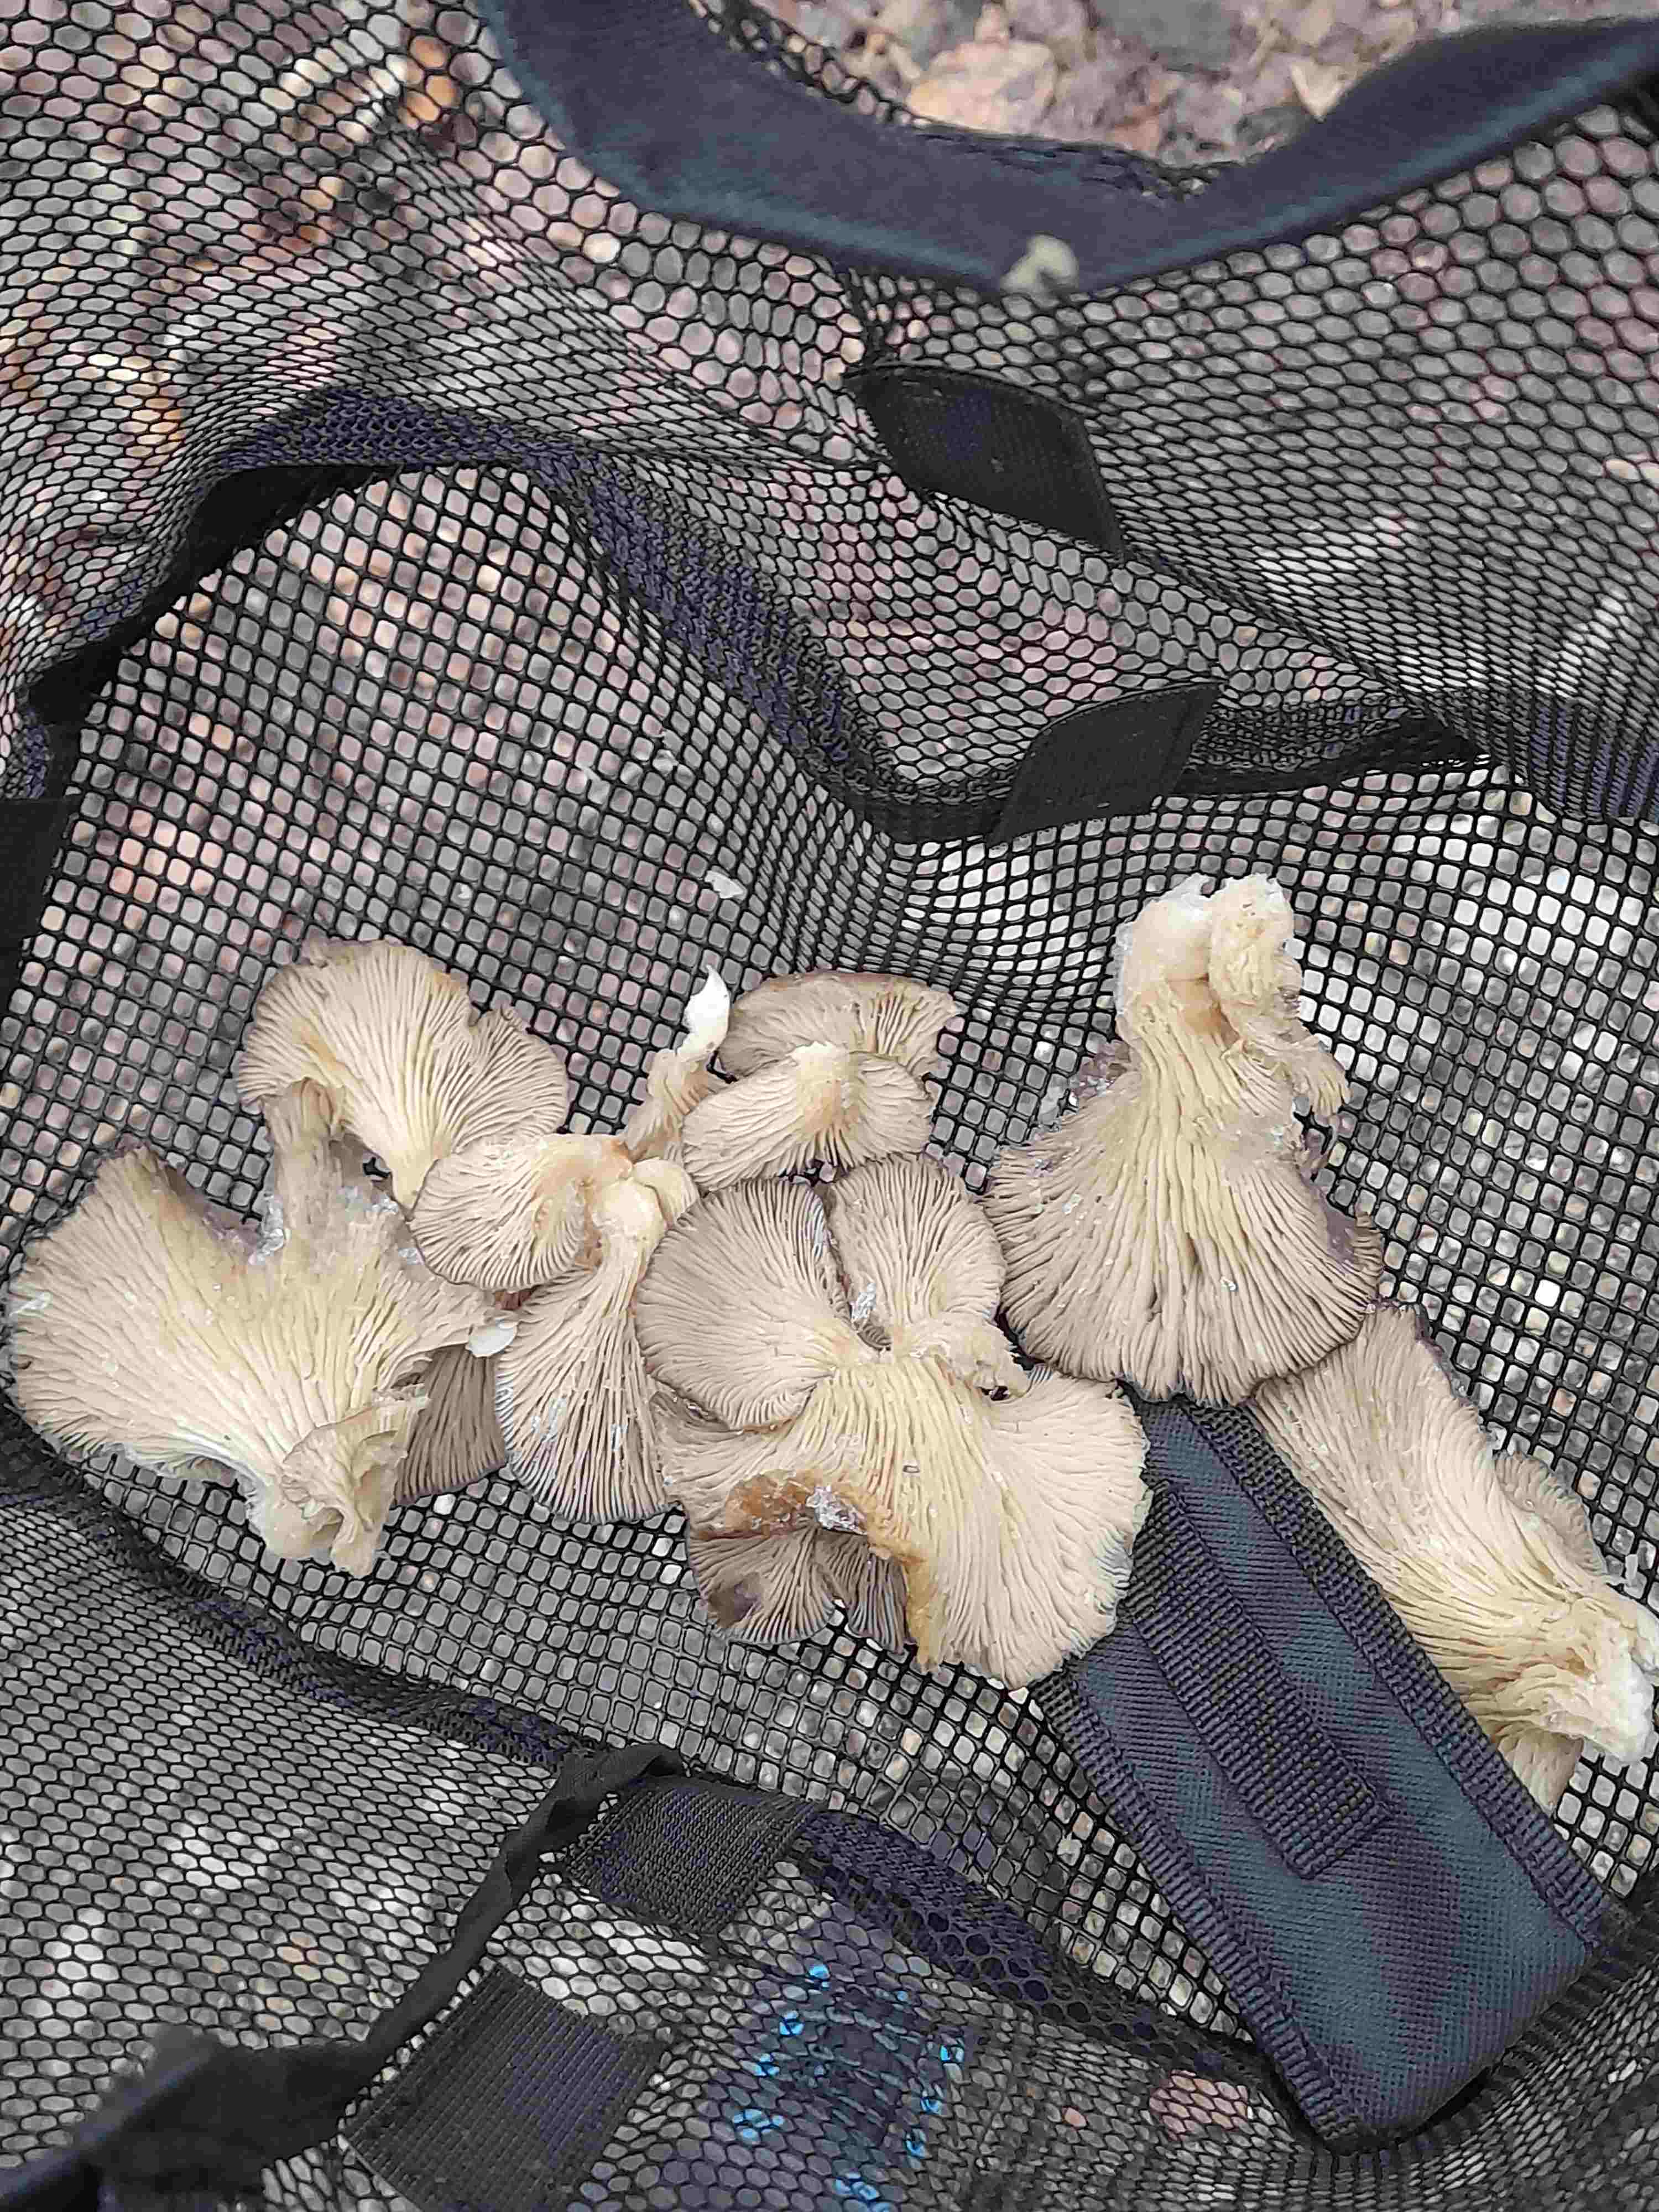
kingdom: Fungi
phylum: Basidiomycota
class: Agaricomycetes
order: Agaricales
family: Pleurotaceae
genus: Pleurotus
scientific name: Pleurotus ostreatus
